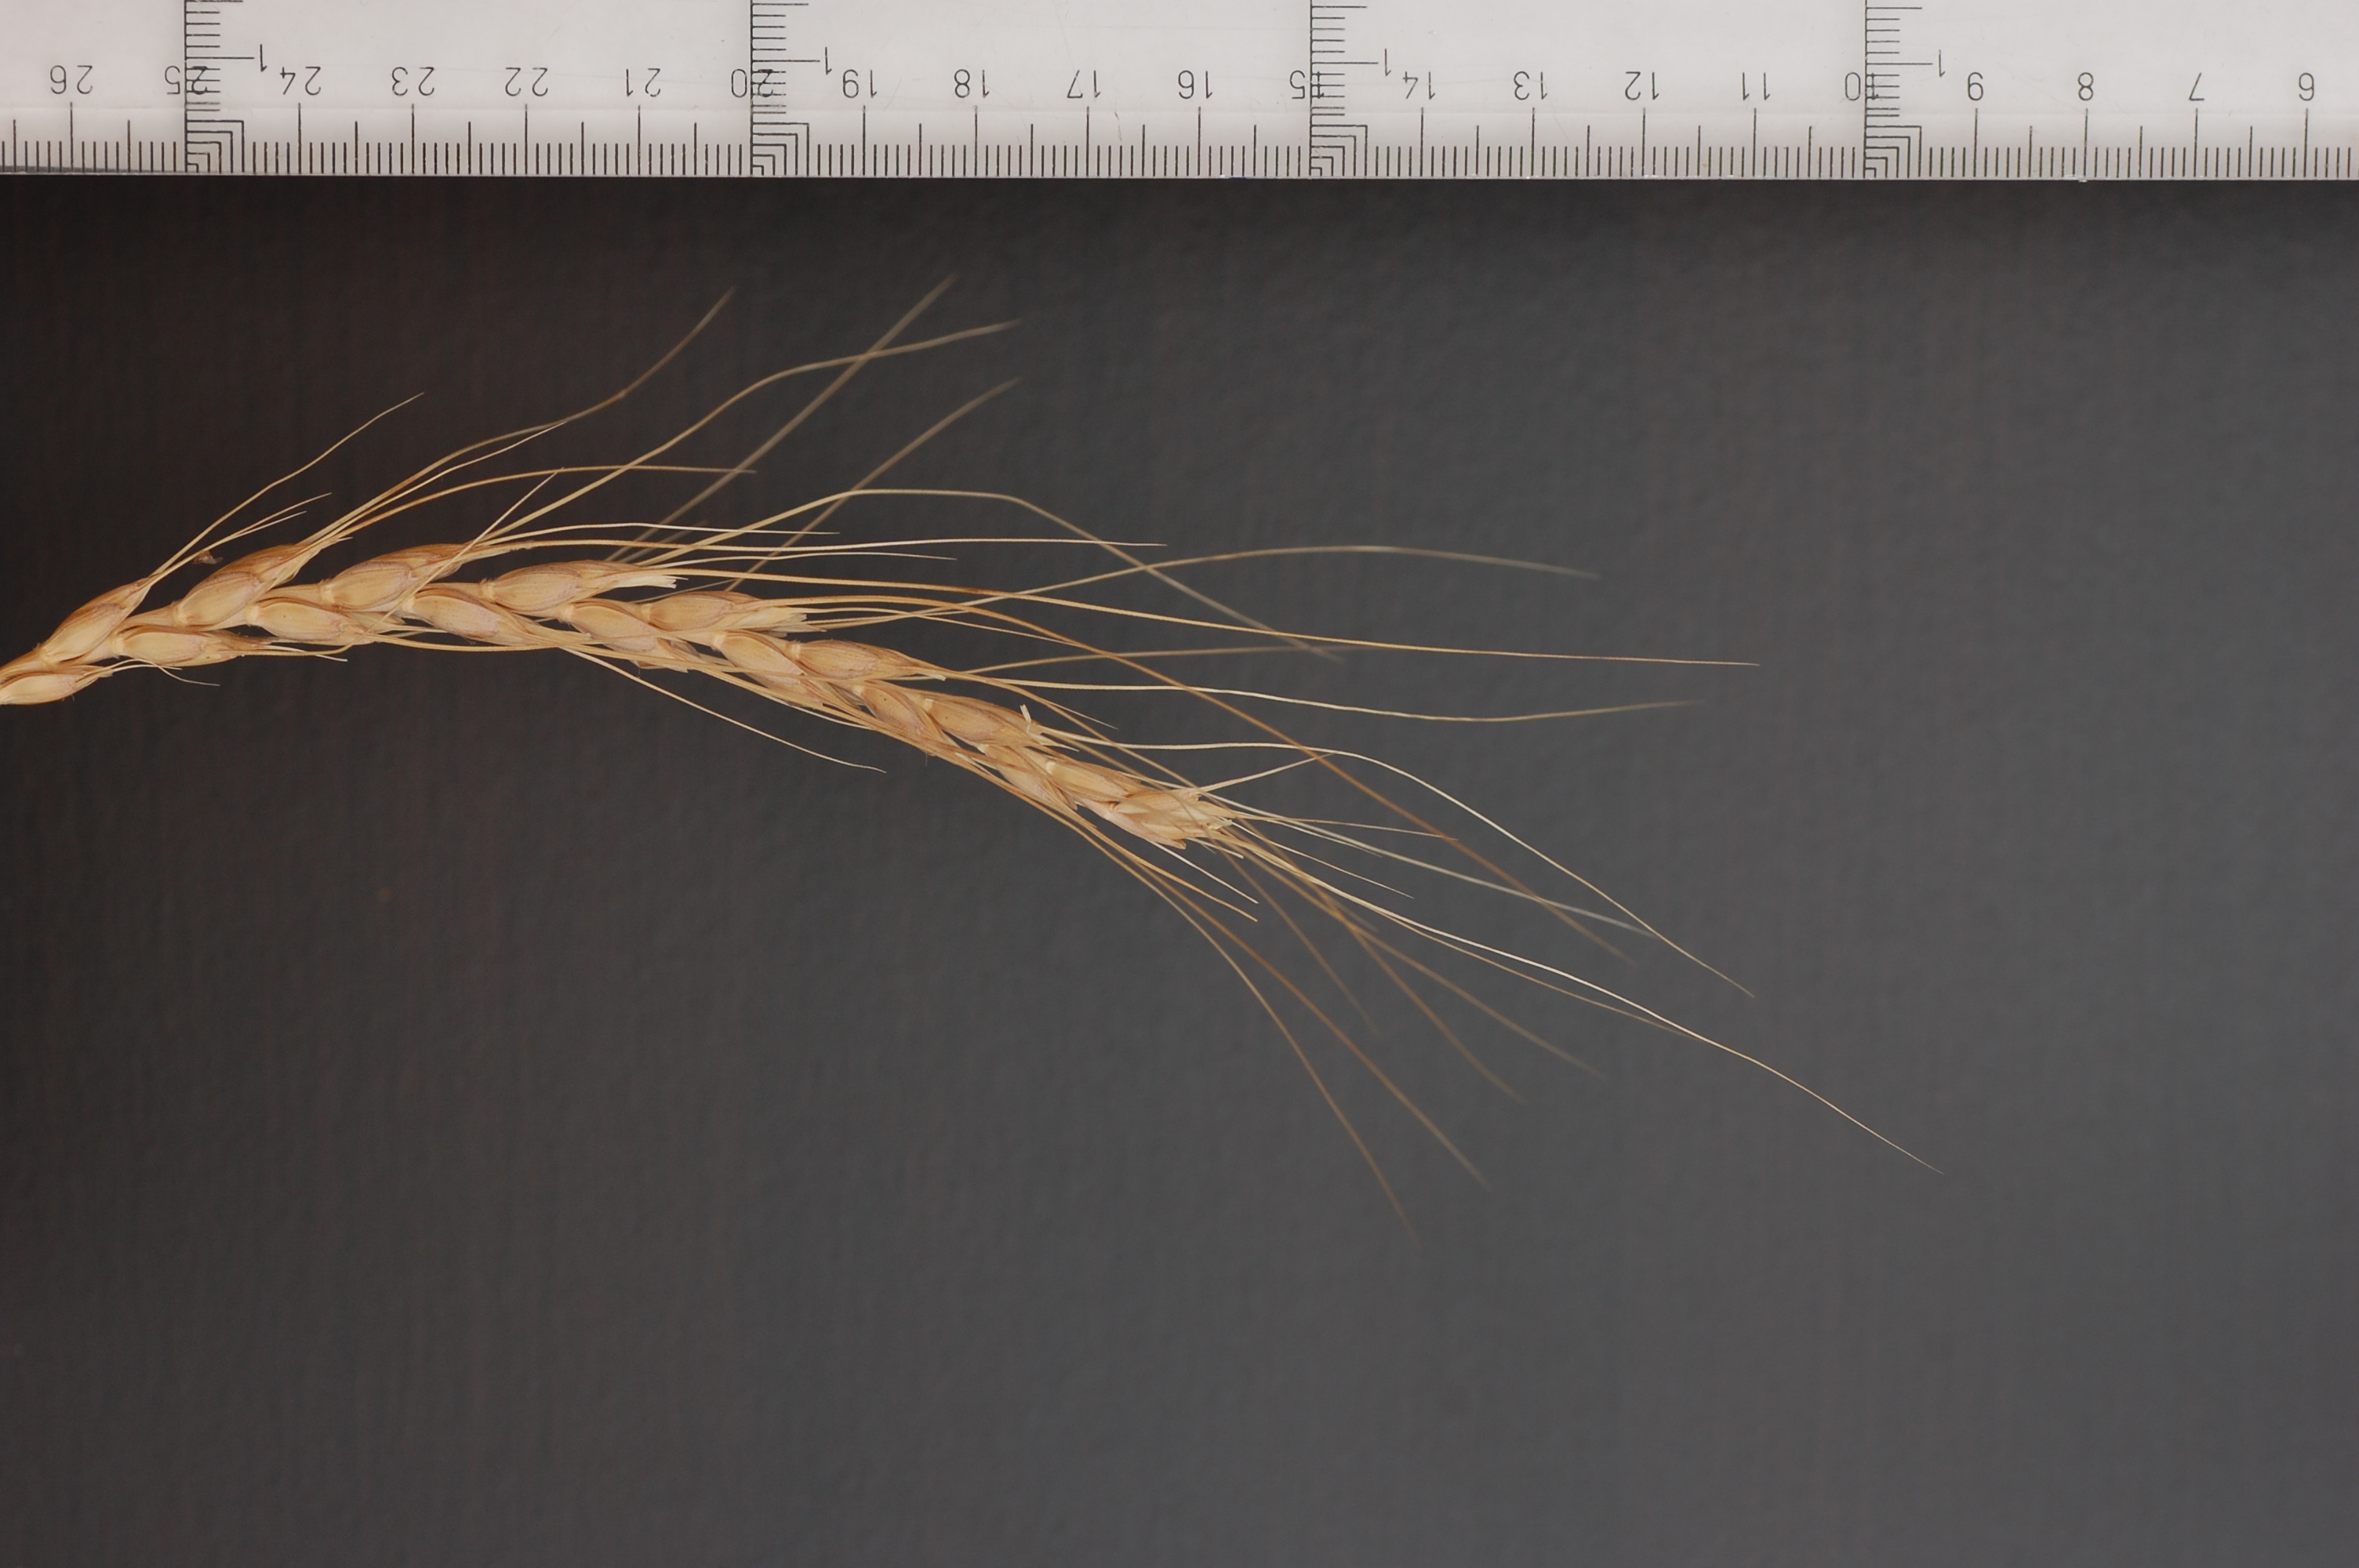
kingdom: Plantae
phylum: Tracheophyta
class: Liliopsida
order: Poales
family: Poaceae
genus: Triticum
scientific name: Triticum aestivum
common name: Common wheat
